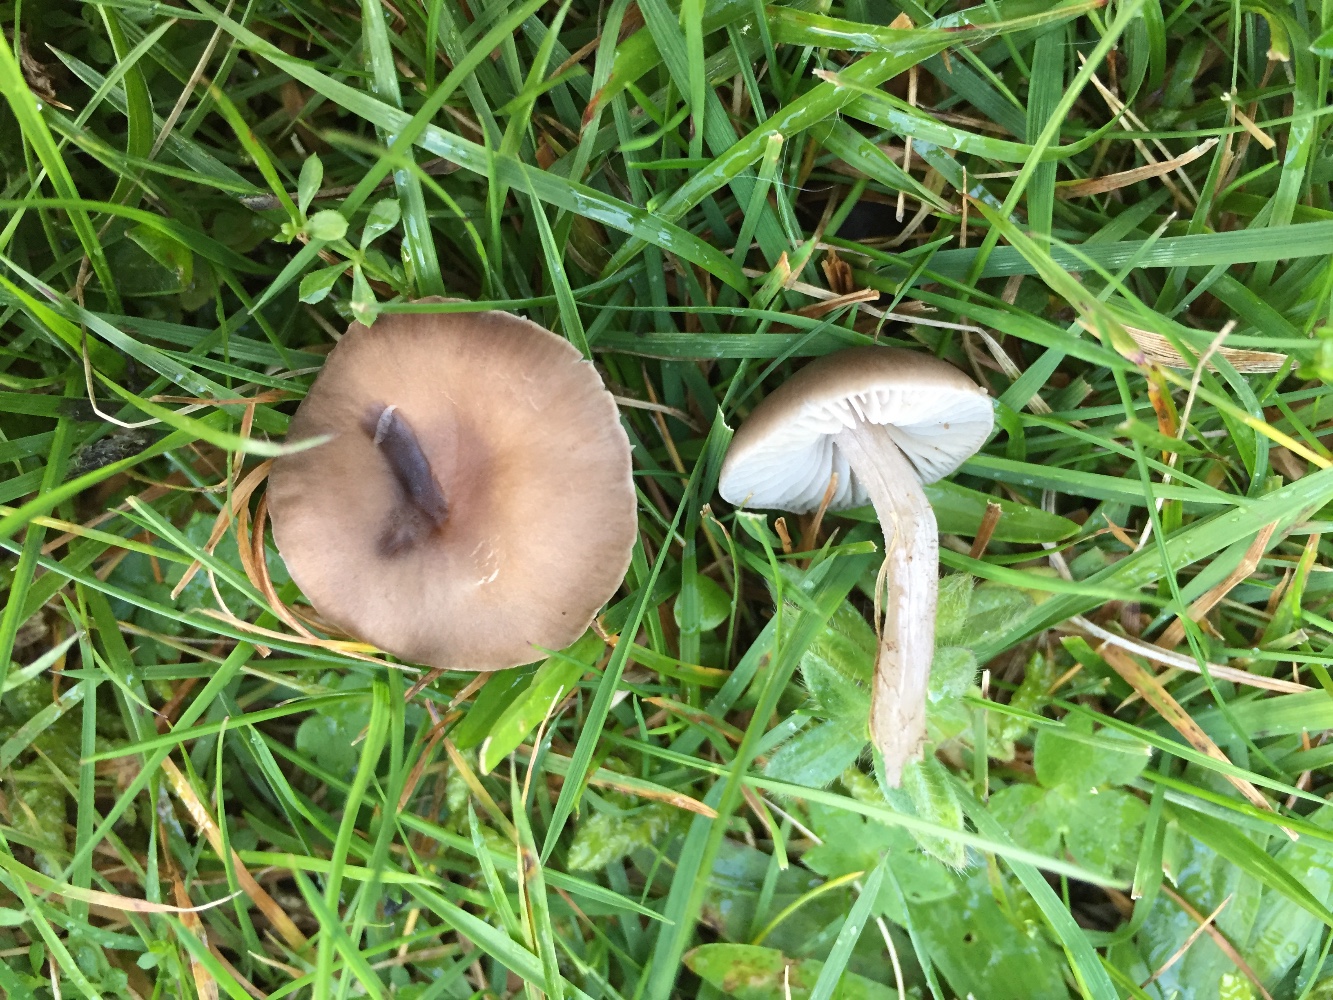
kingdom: Fungi
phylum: Basidiomycota
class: Agaricomycetes
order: Agaricales
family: Tricholomataceae
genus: Dermoloma
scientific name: Dermoloma cuneifolium
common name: eng-nonnehat
